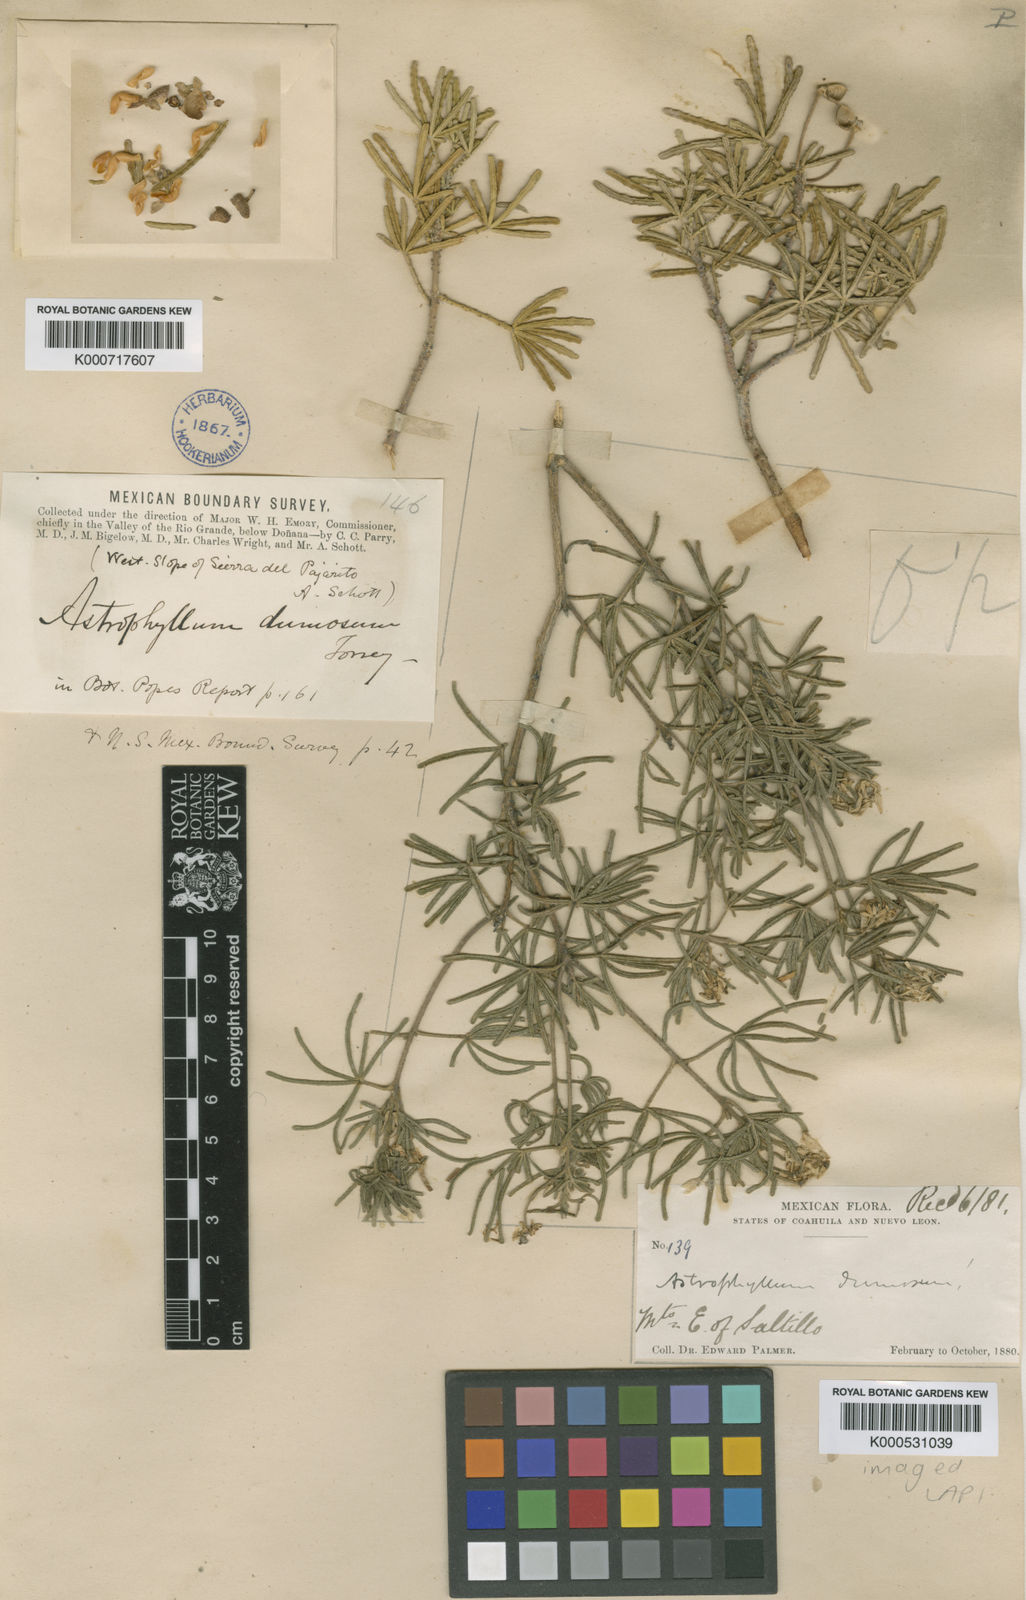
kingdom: Plantae
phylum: Tracheophyta
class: Magnoliopsida
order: Sapindales
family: Rutaceae
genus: Choisya
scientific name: Choisya dumosa
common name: Mexican-orange
